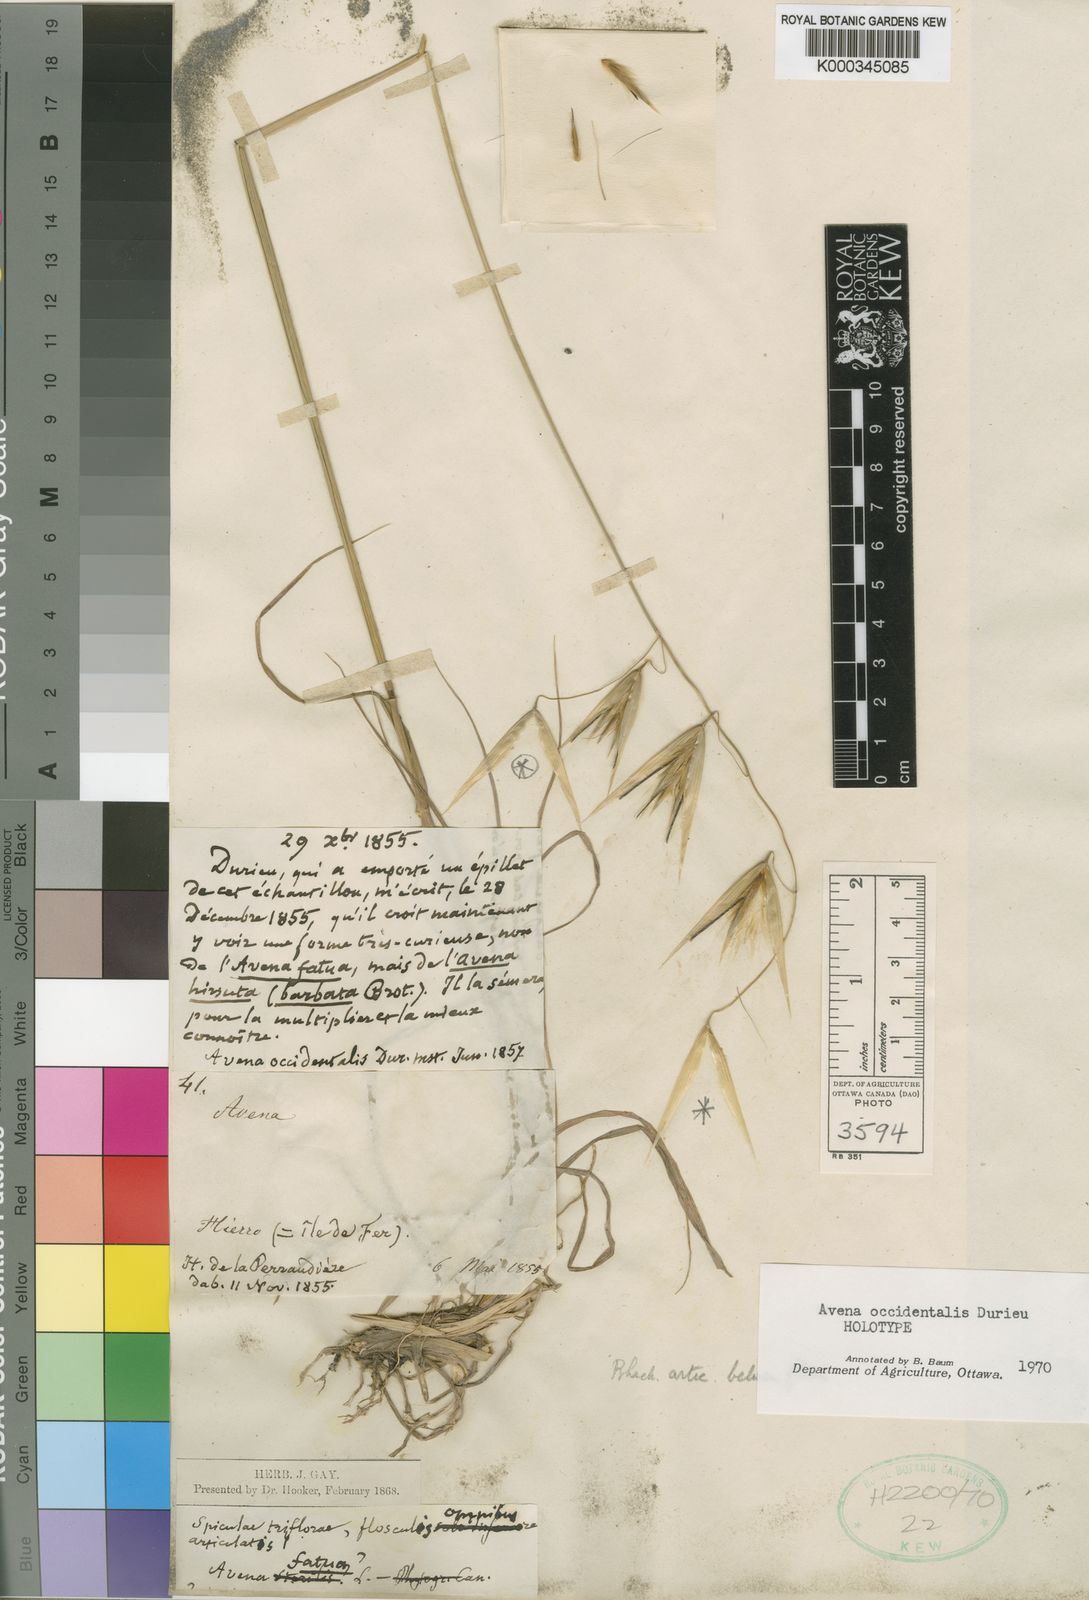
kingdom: Plantae
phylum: Tracheophyta
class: Liliopsida
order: Poales
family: Poaceae
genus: Avena
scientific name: Avena
